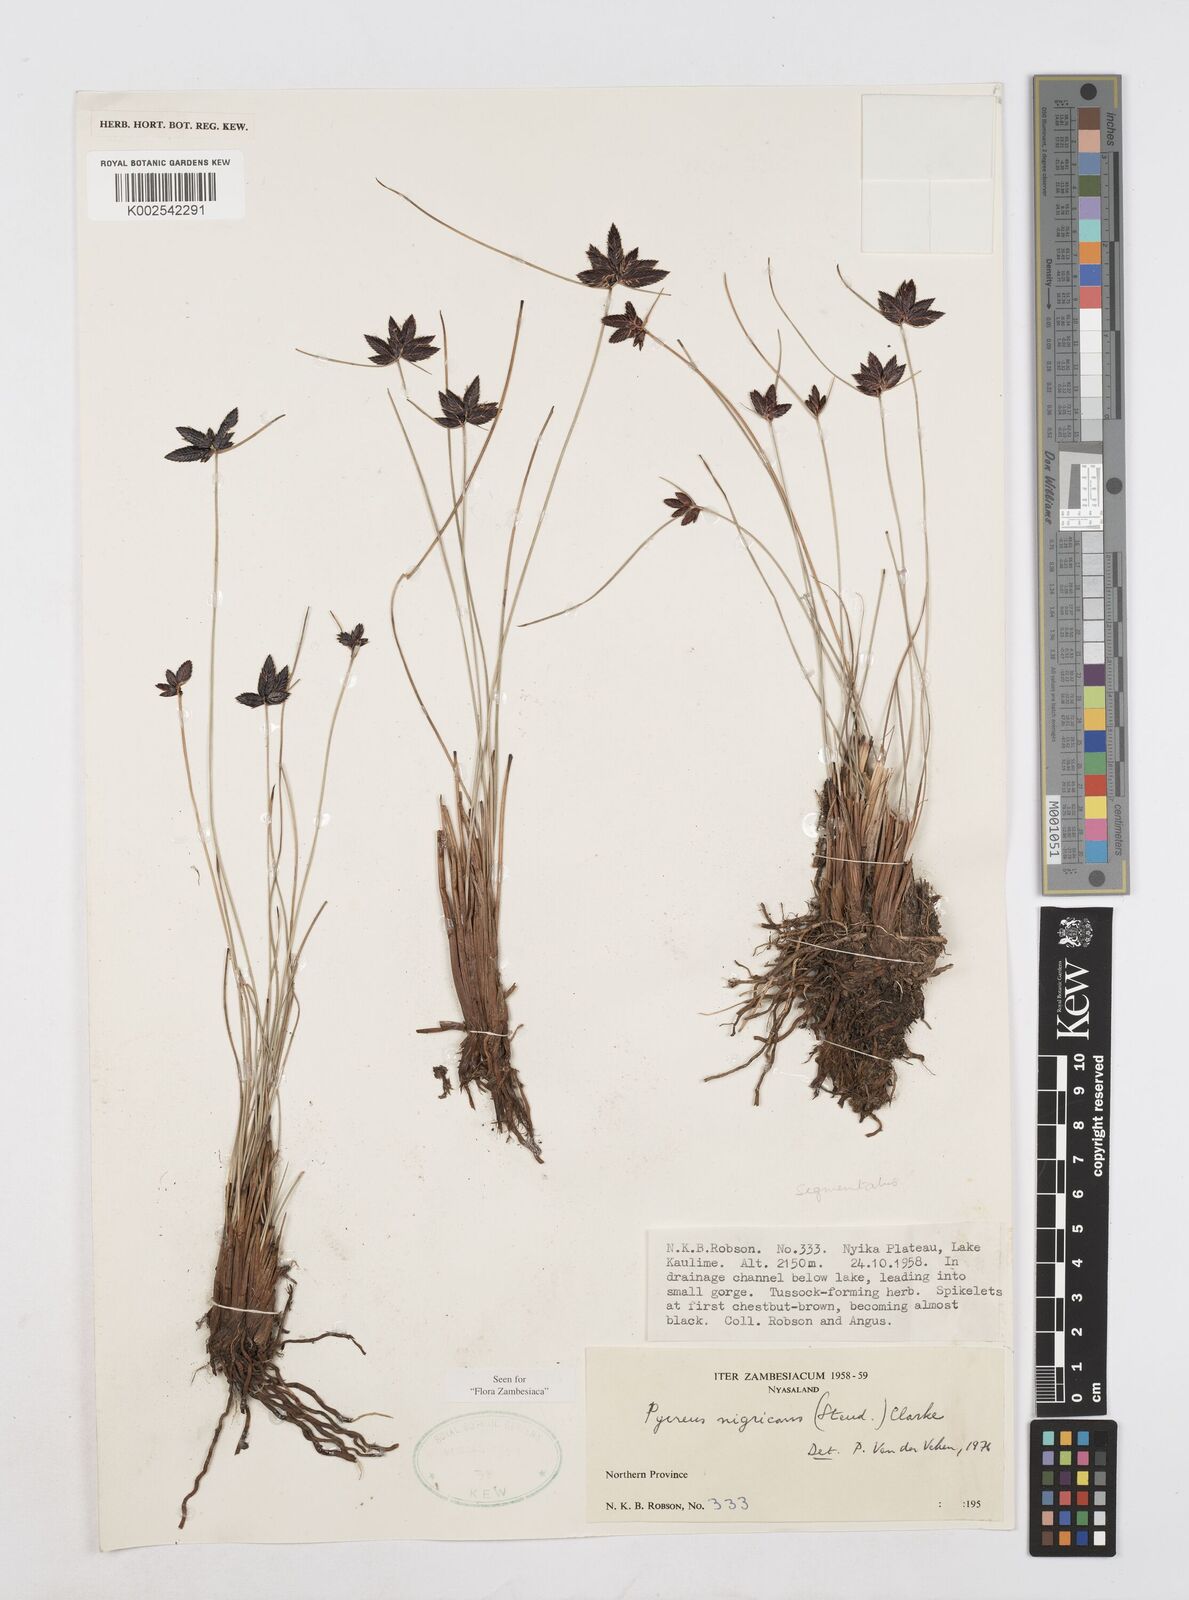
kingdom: Plantae
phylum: Tracheophyta
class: Liliopsida
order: Poales
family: Cyperaceae
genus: Cyperus
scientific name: Cyperus nigricans
